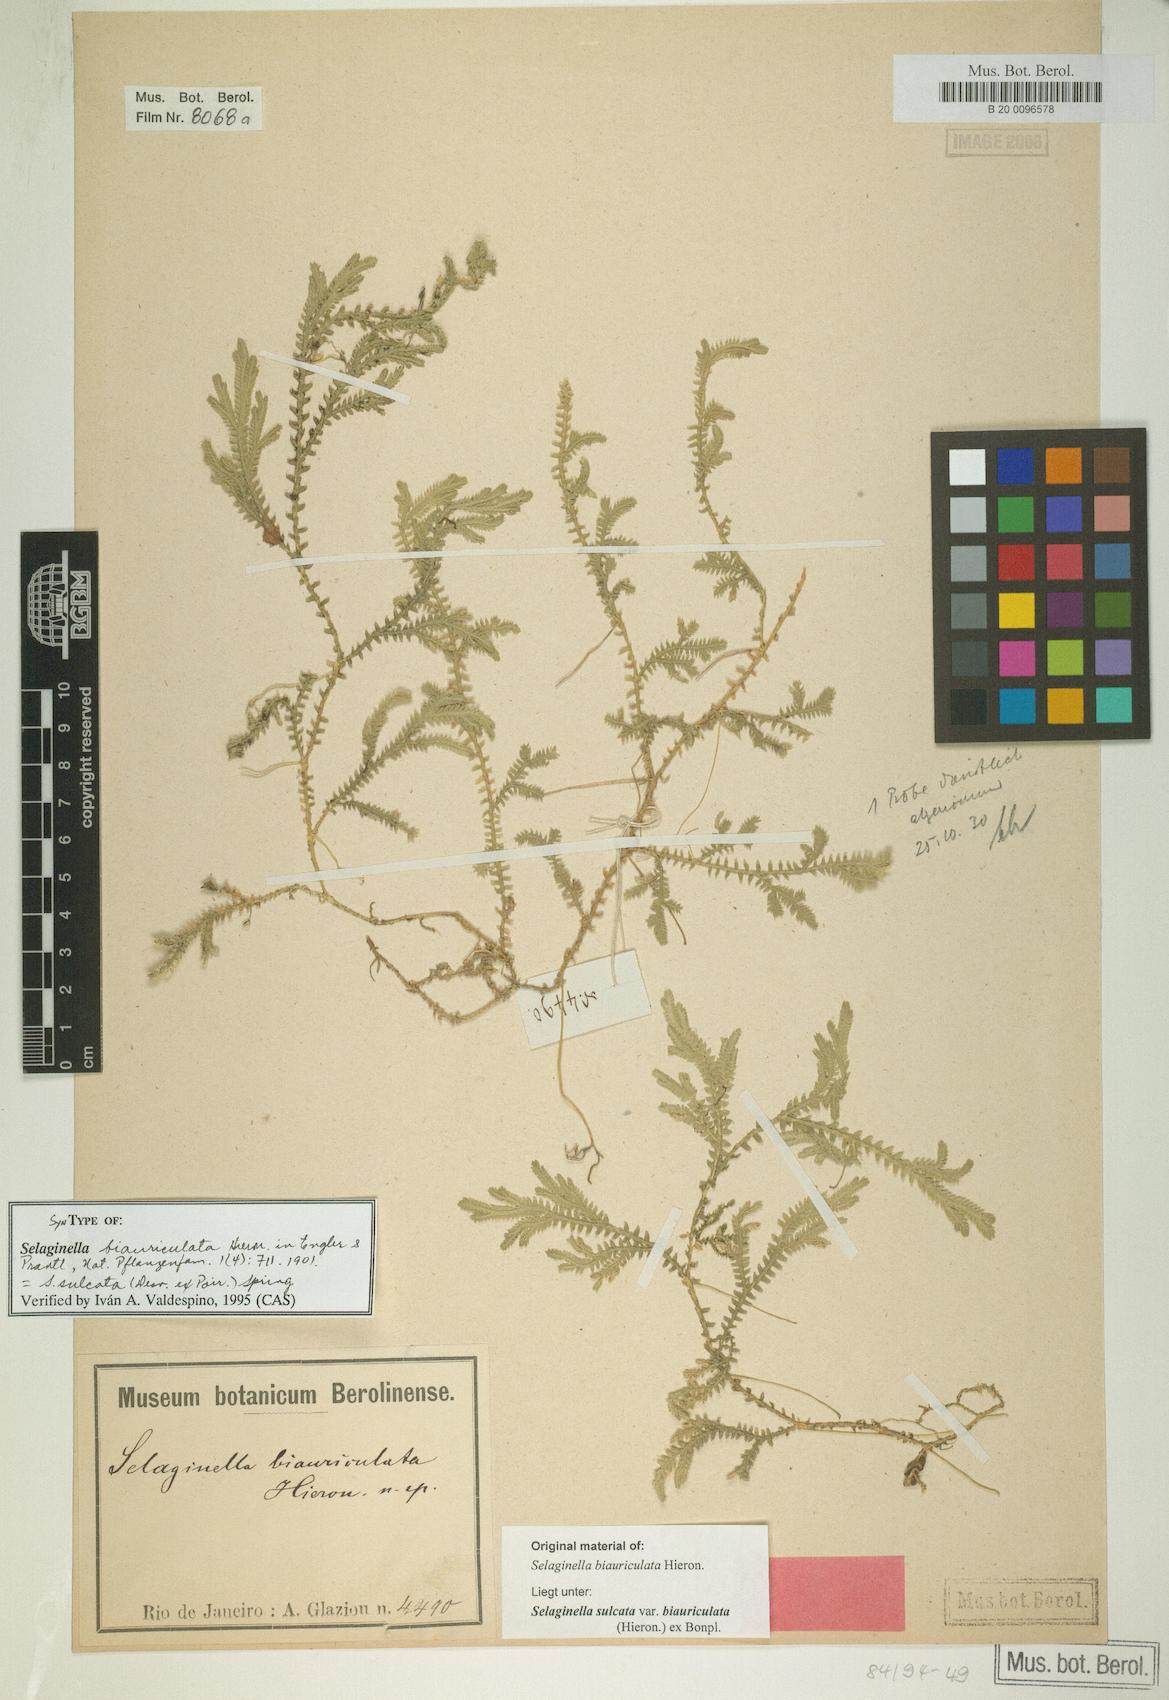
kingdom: Plantae
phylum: Tracheophyta
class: Lycopodiopsida
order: Selaginellales
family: Selaginellaceae
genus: Selaginella
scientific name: Selaginella sulcata
